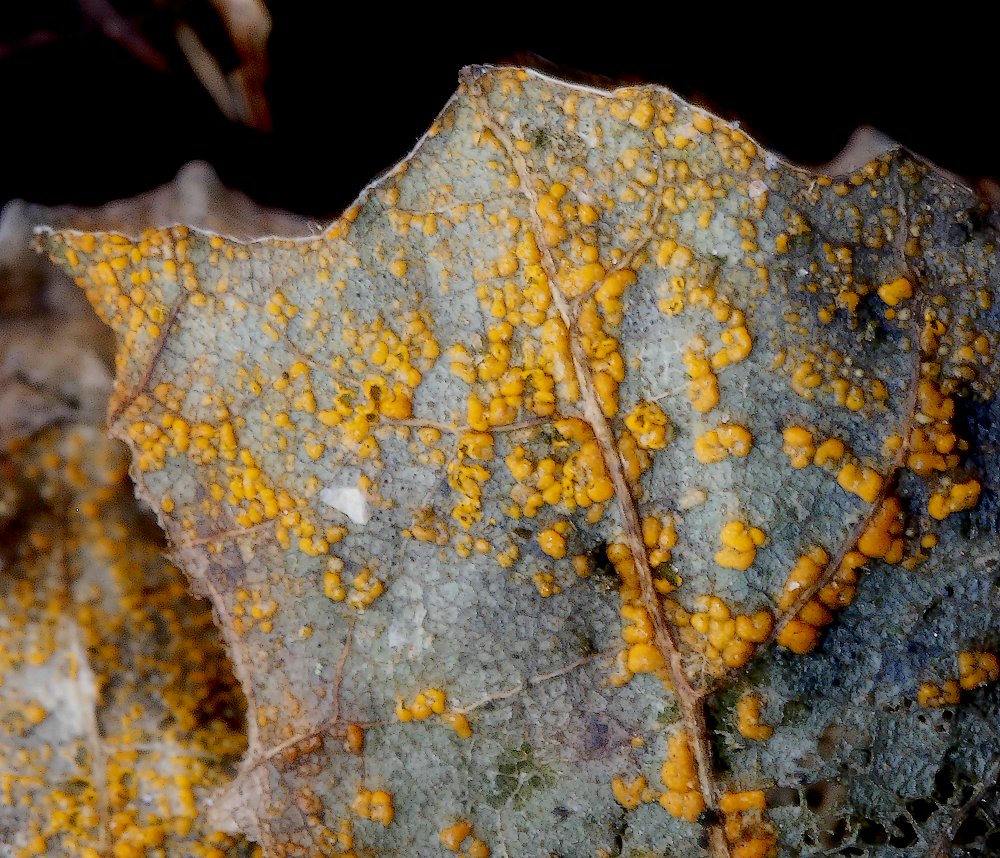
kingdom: Fungi
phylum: Basidiomycota
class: Pucciniomycetes
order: Pucciniales
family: Pucciniastraceae
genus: Melampsoridium
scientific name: Melampsoridium
